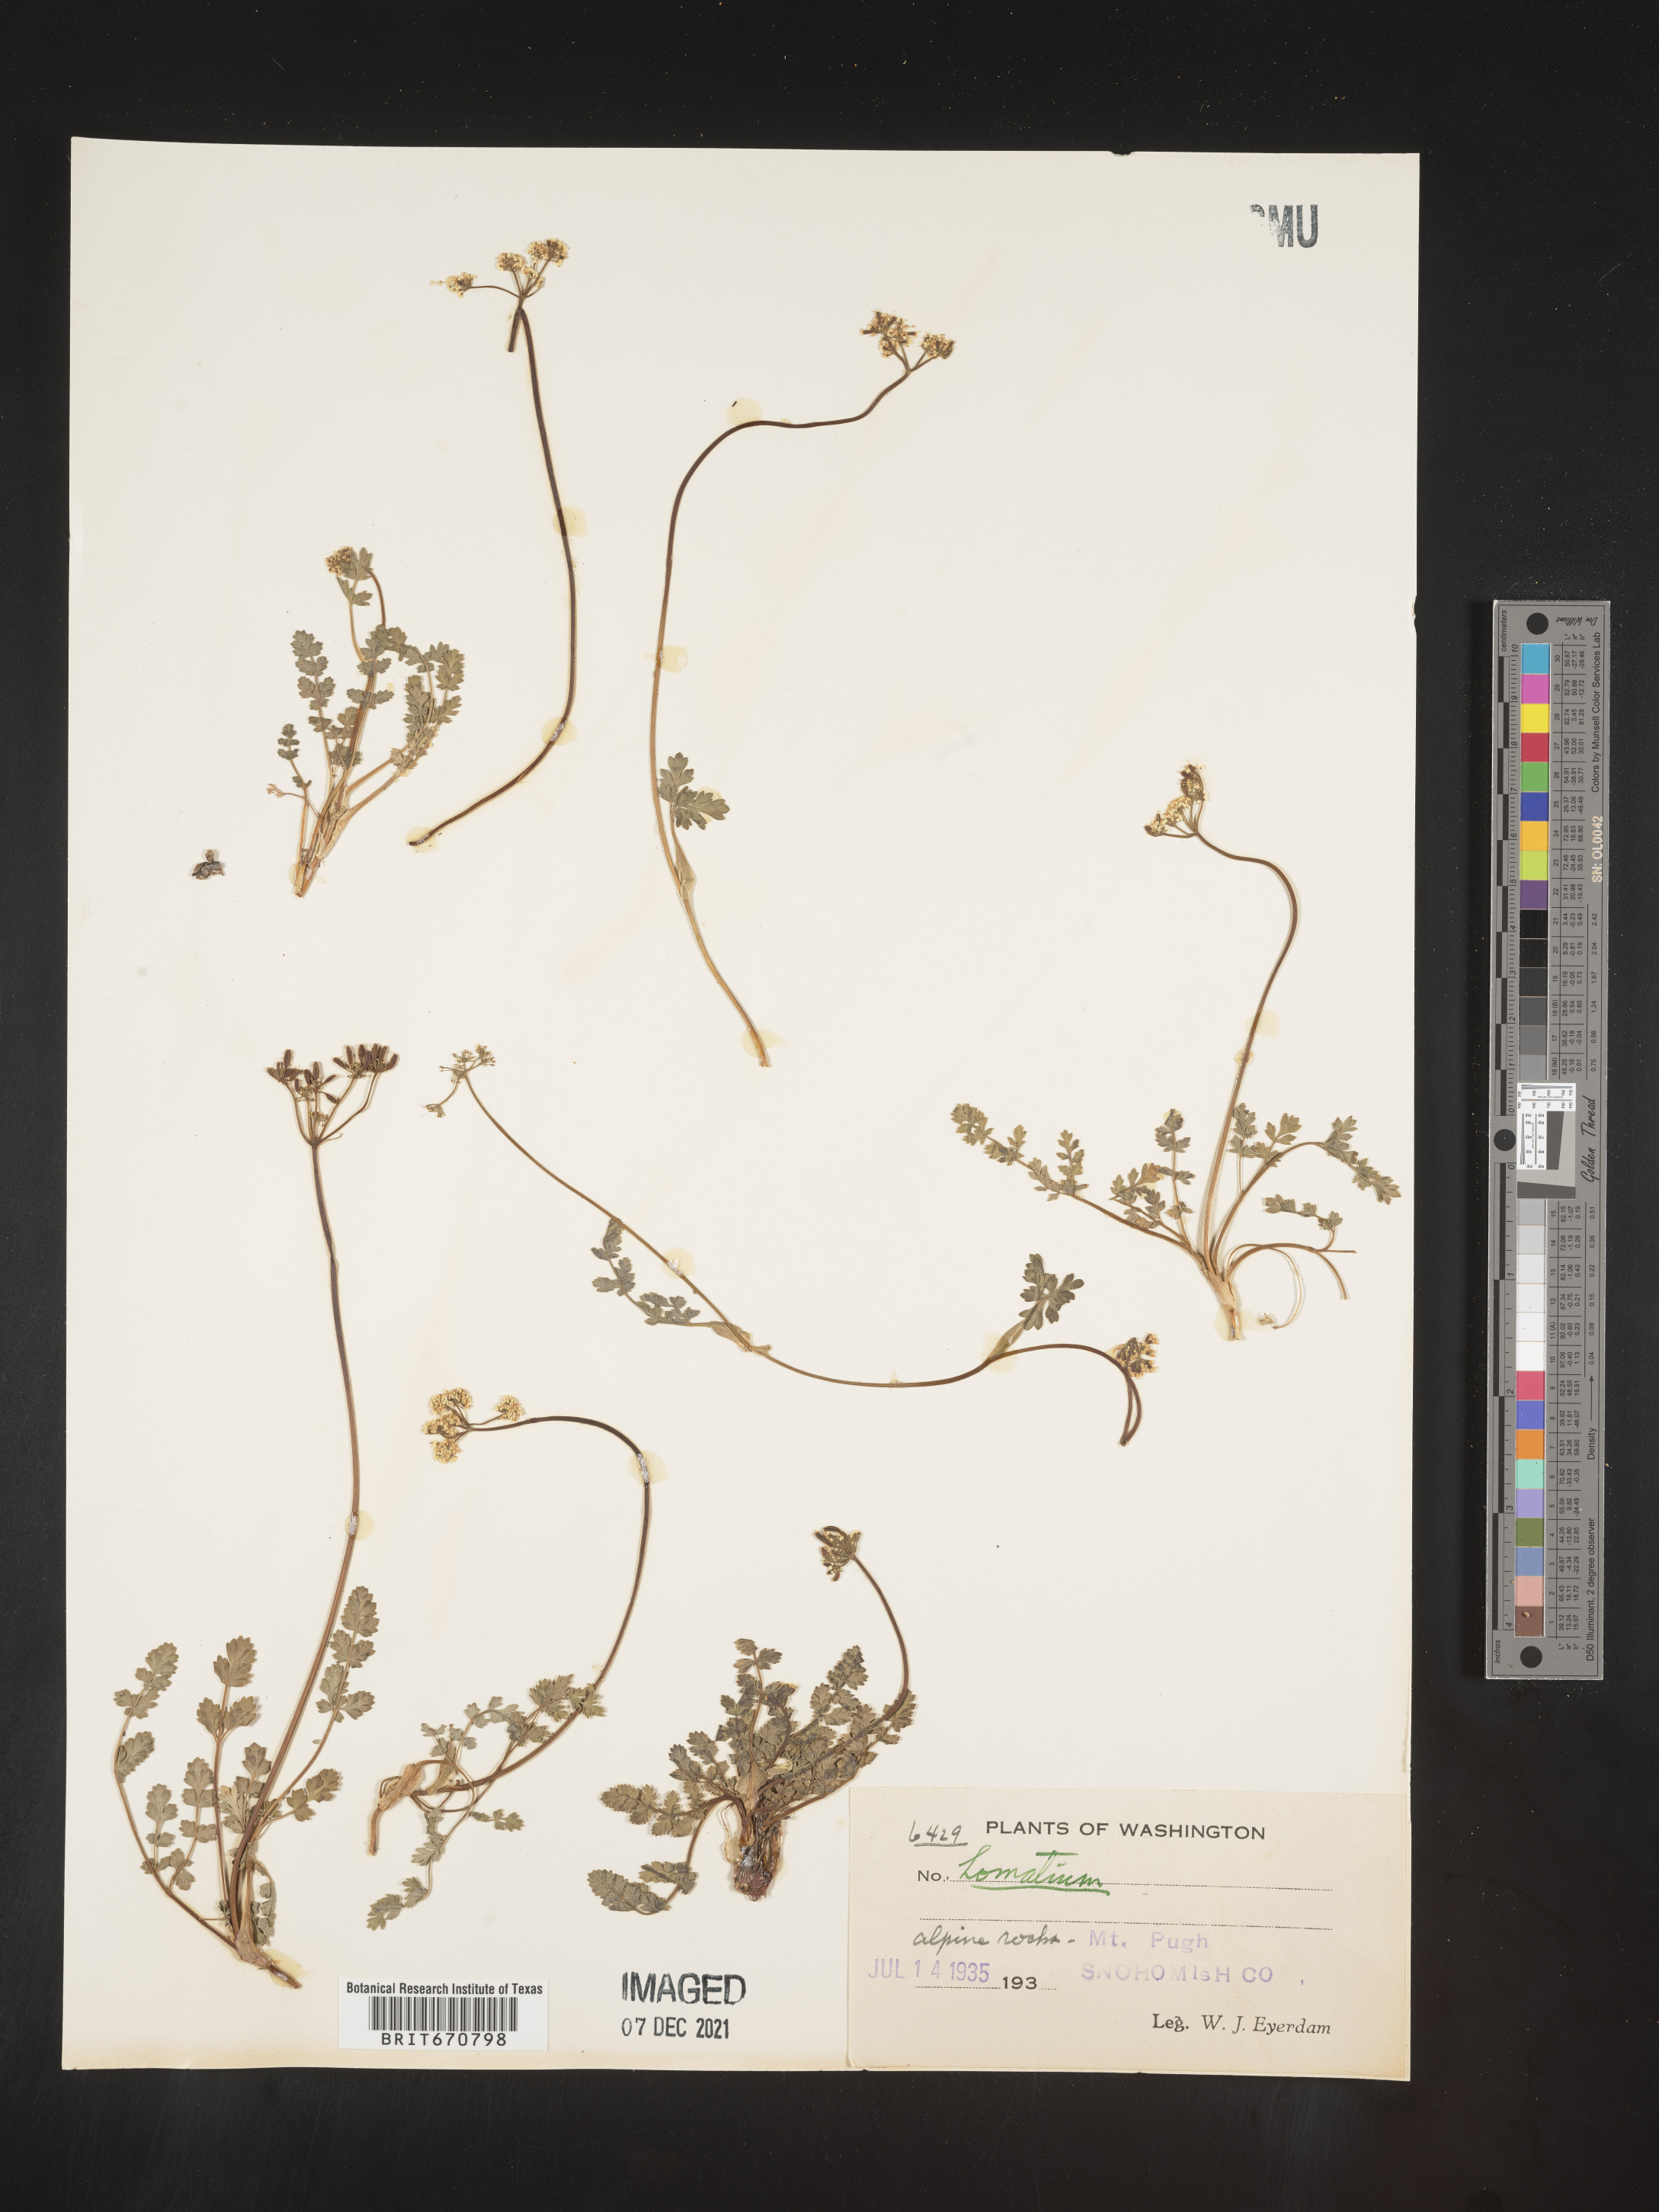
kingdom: Plantae
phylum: Tracheophyta
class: Magnoliopsida
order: Apiales
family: Apiaceae
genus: Lomatium
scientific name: Lomatium
